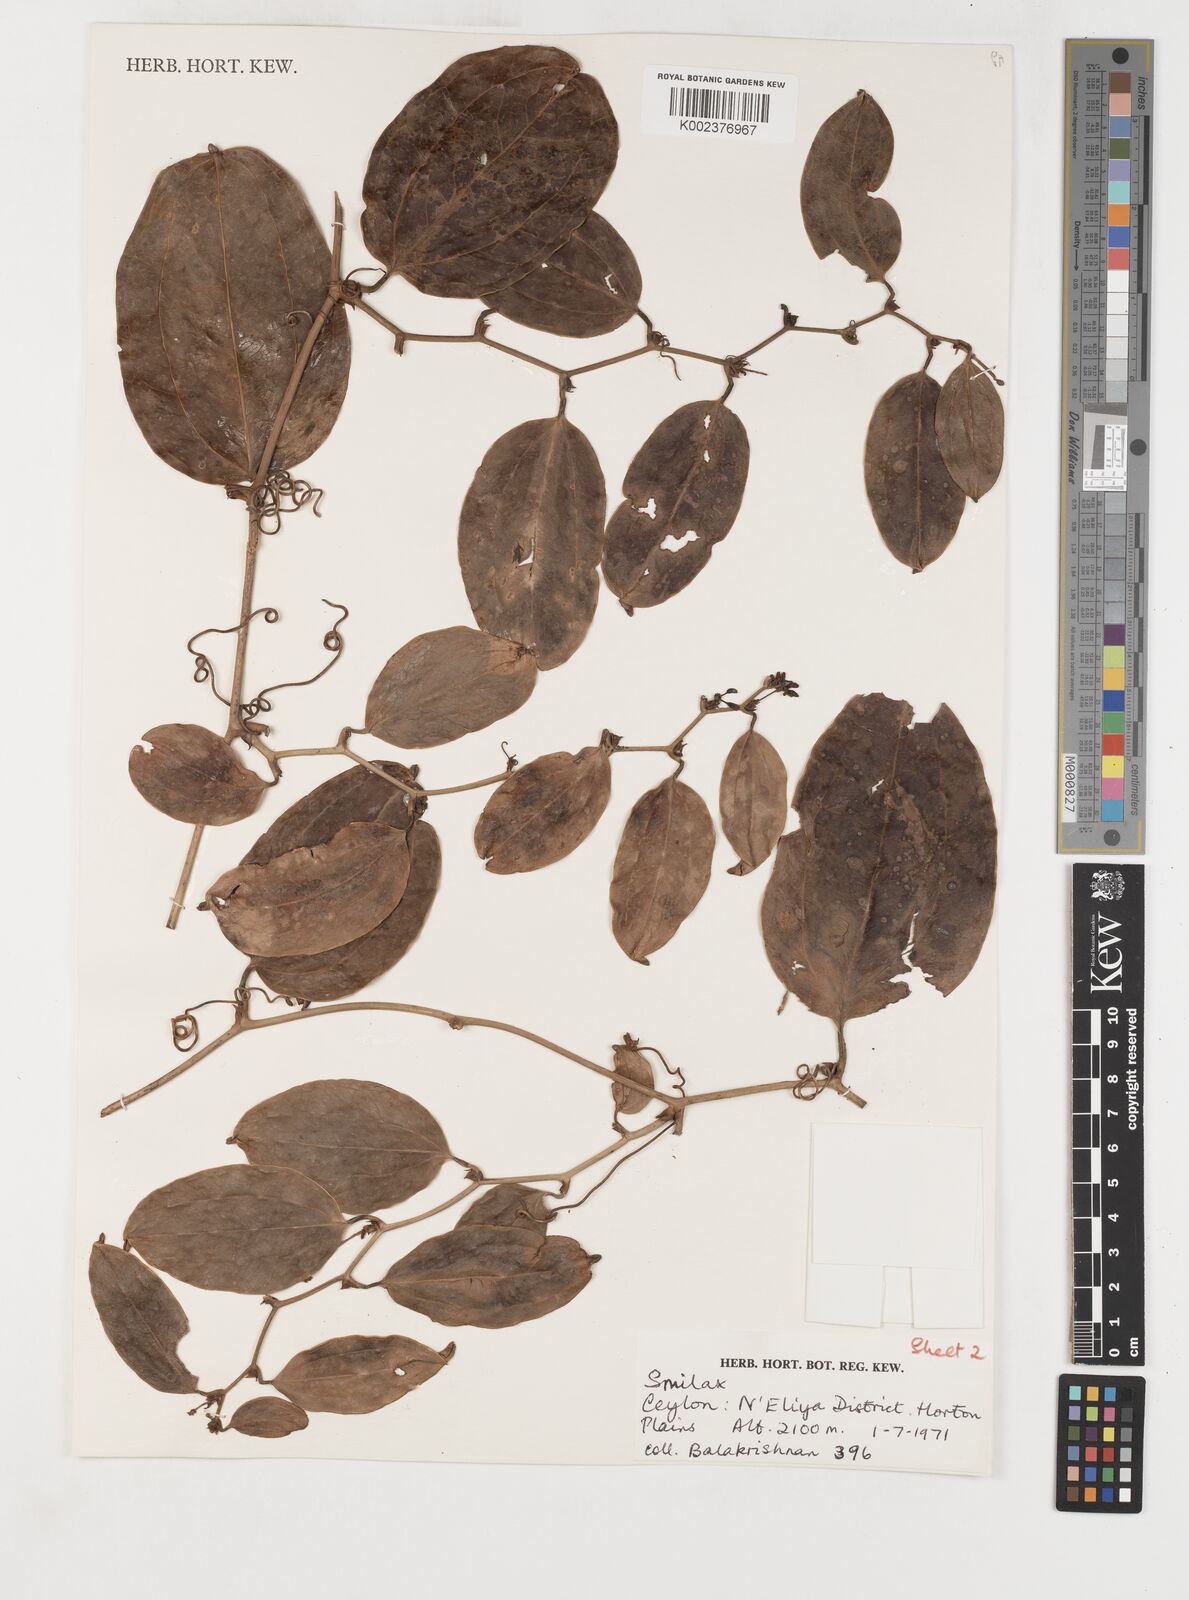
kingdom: Plantae
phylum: Tracheophyta
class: Liliopsida
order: Liliales
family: Smilacaceae
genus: Smilax
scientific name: Smilax
